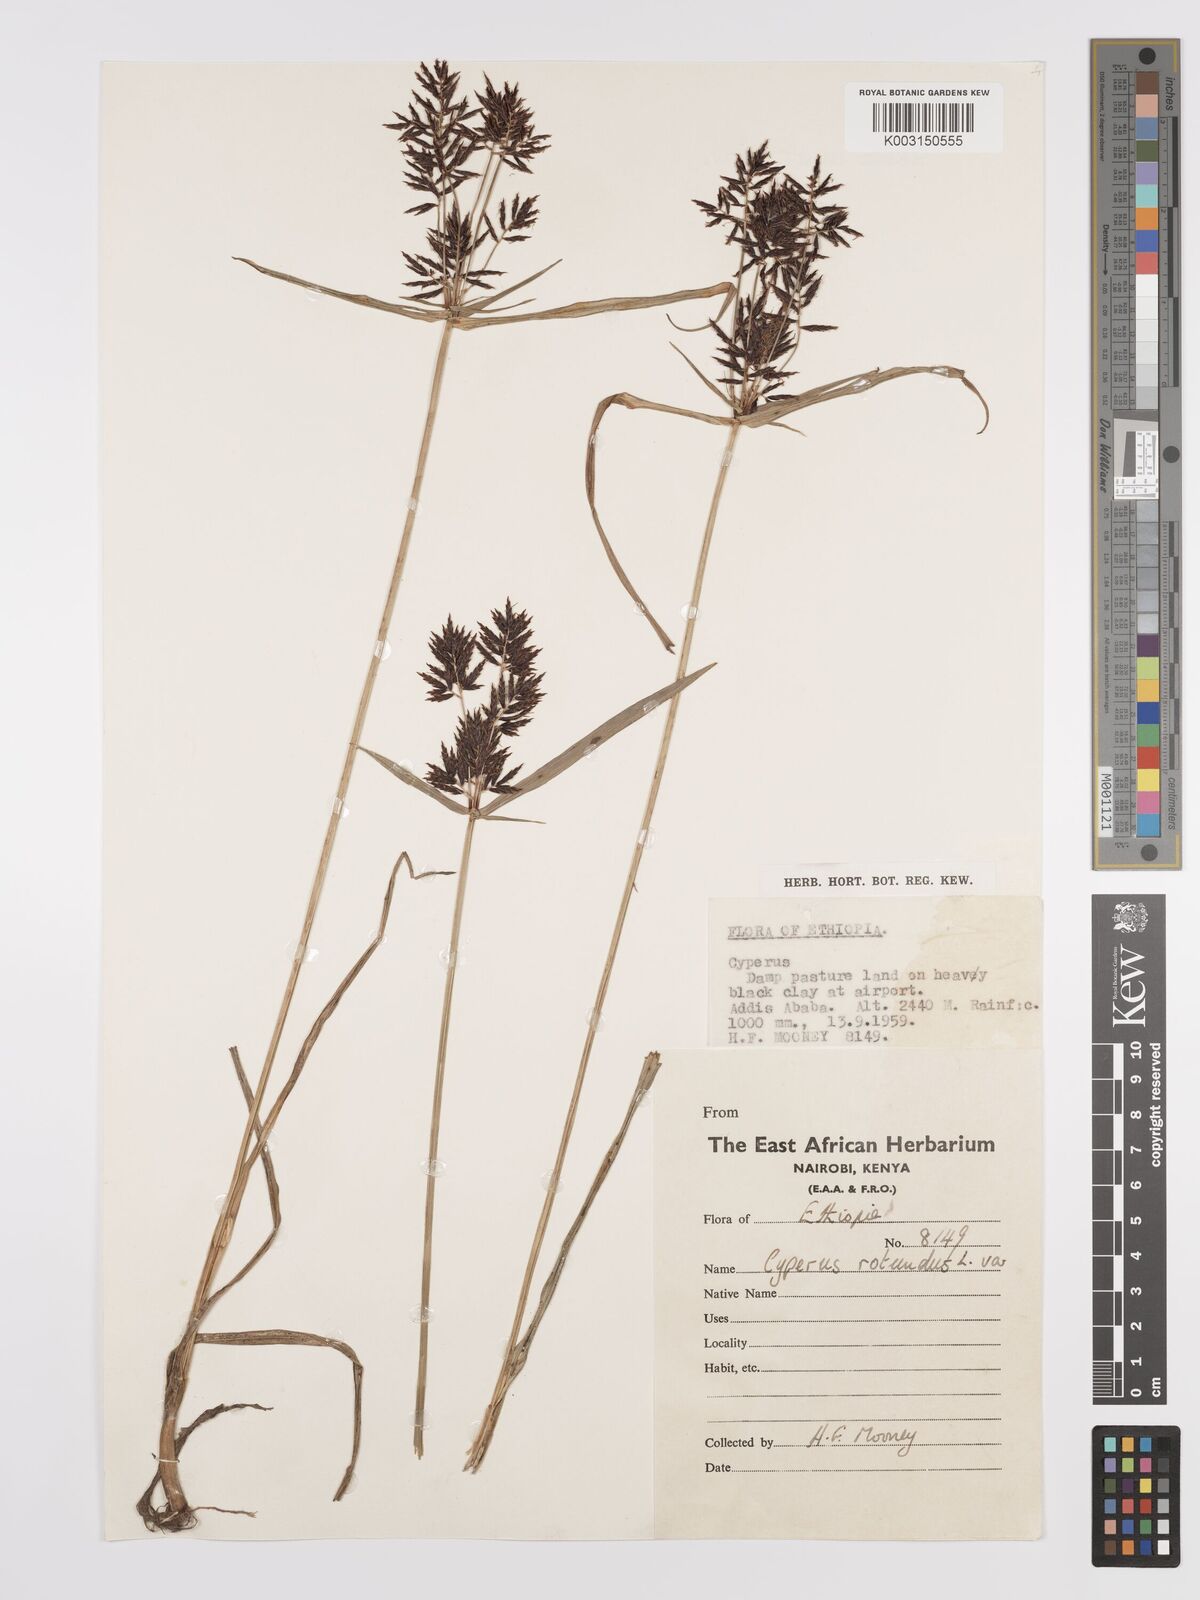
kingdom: Plantae
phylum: Tracheophyta
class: Liliopsida
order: Poales
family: Cyperaceae
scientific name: Cyperaceae
